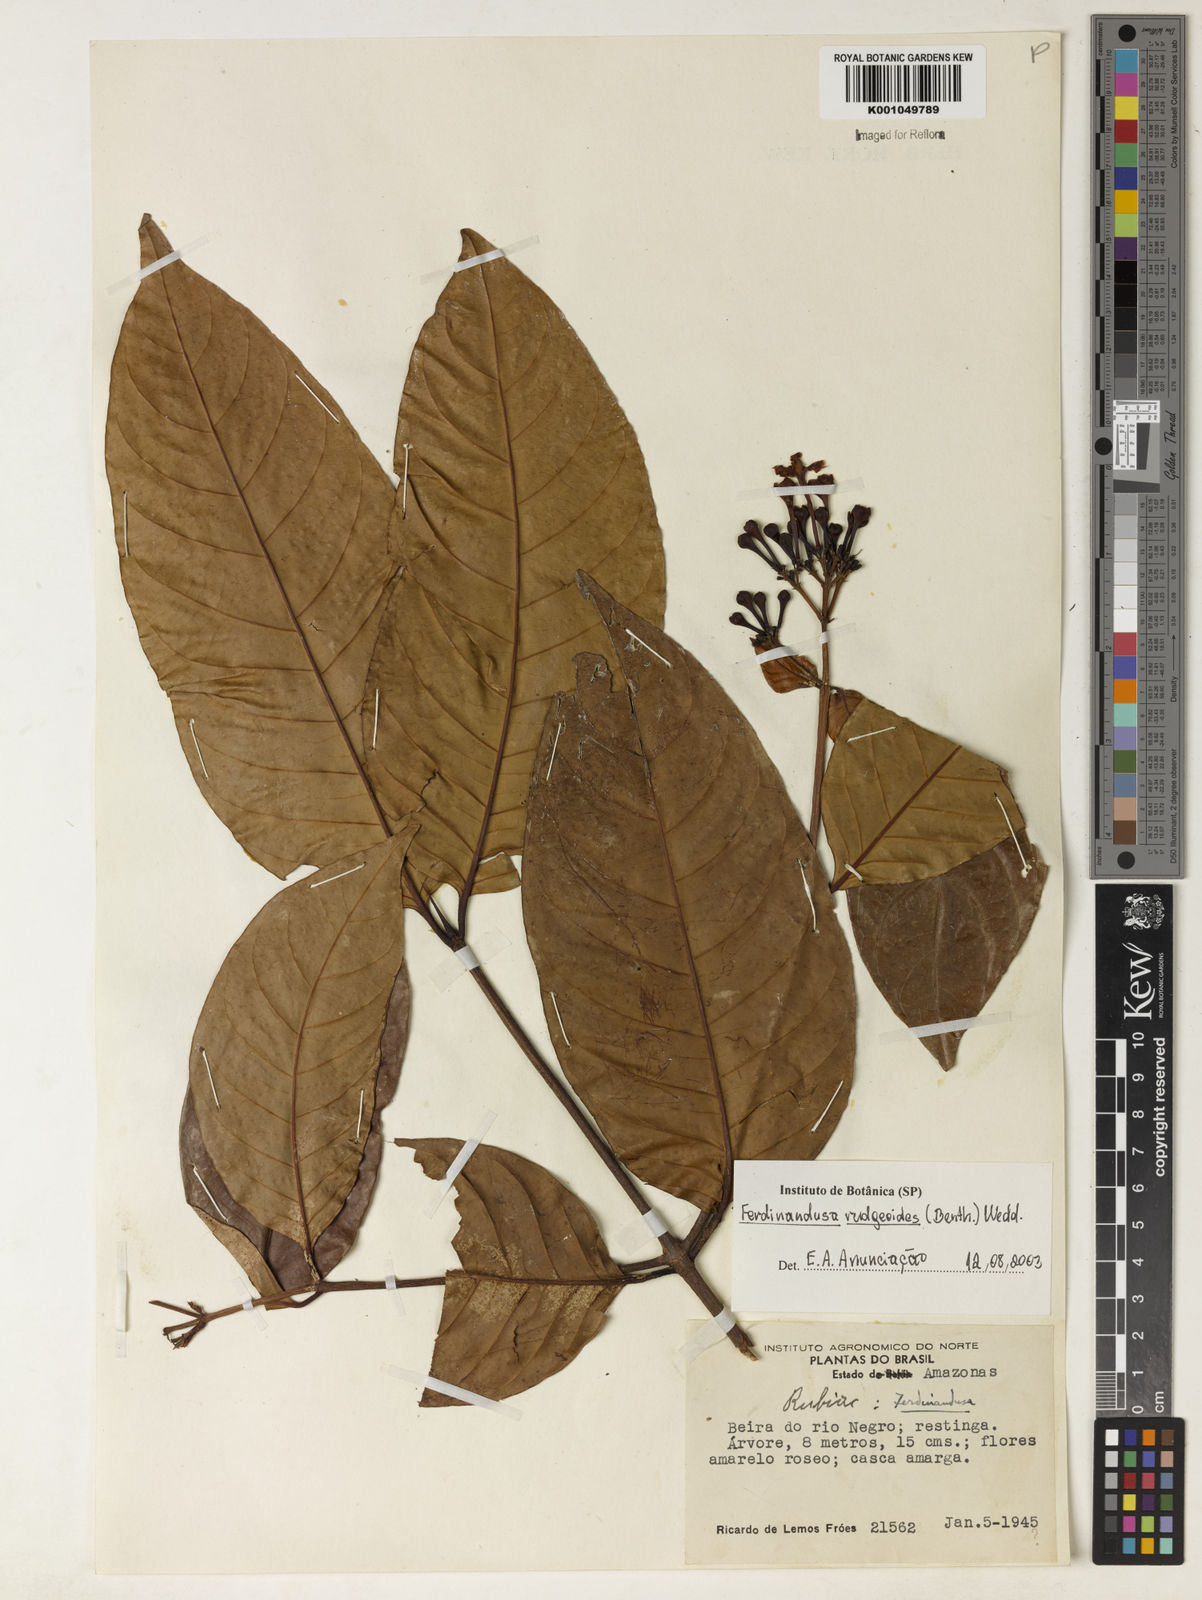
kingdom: Plantae
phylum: Tracheophyta
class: Magnoliopsida
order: Gentianales
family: Rubiaceae
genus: Ferdinandusa
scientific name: Ferdinandusa rudgeoides
